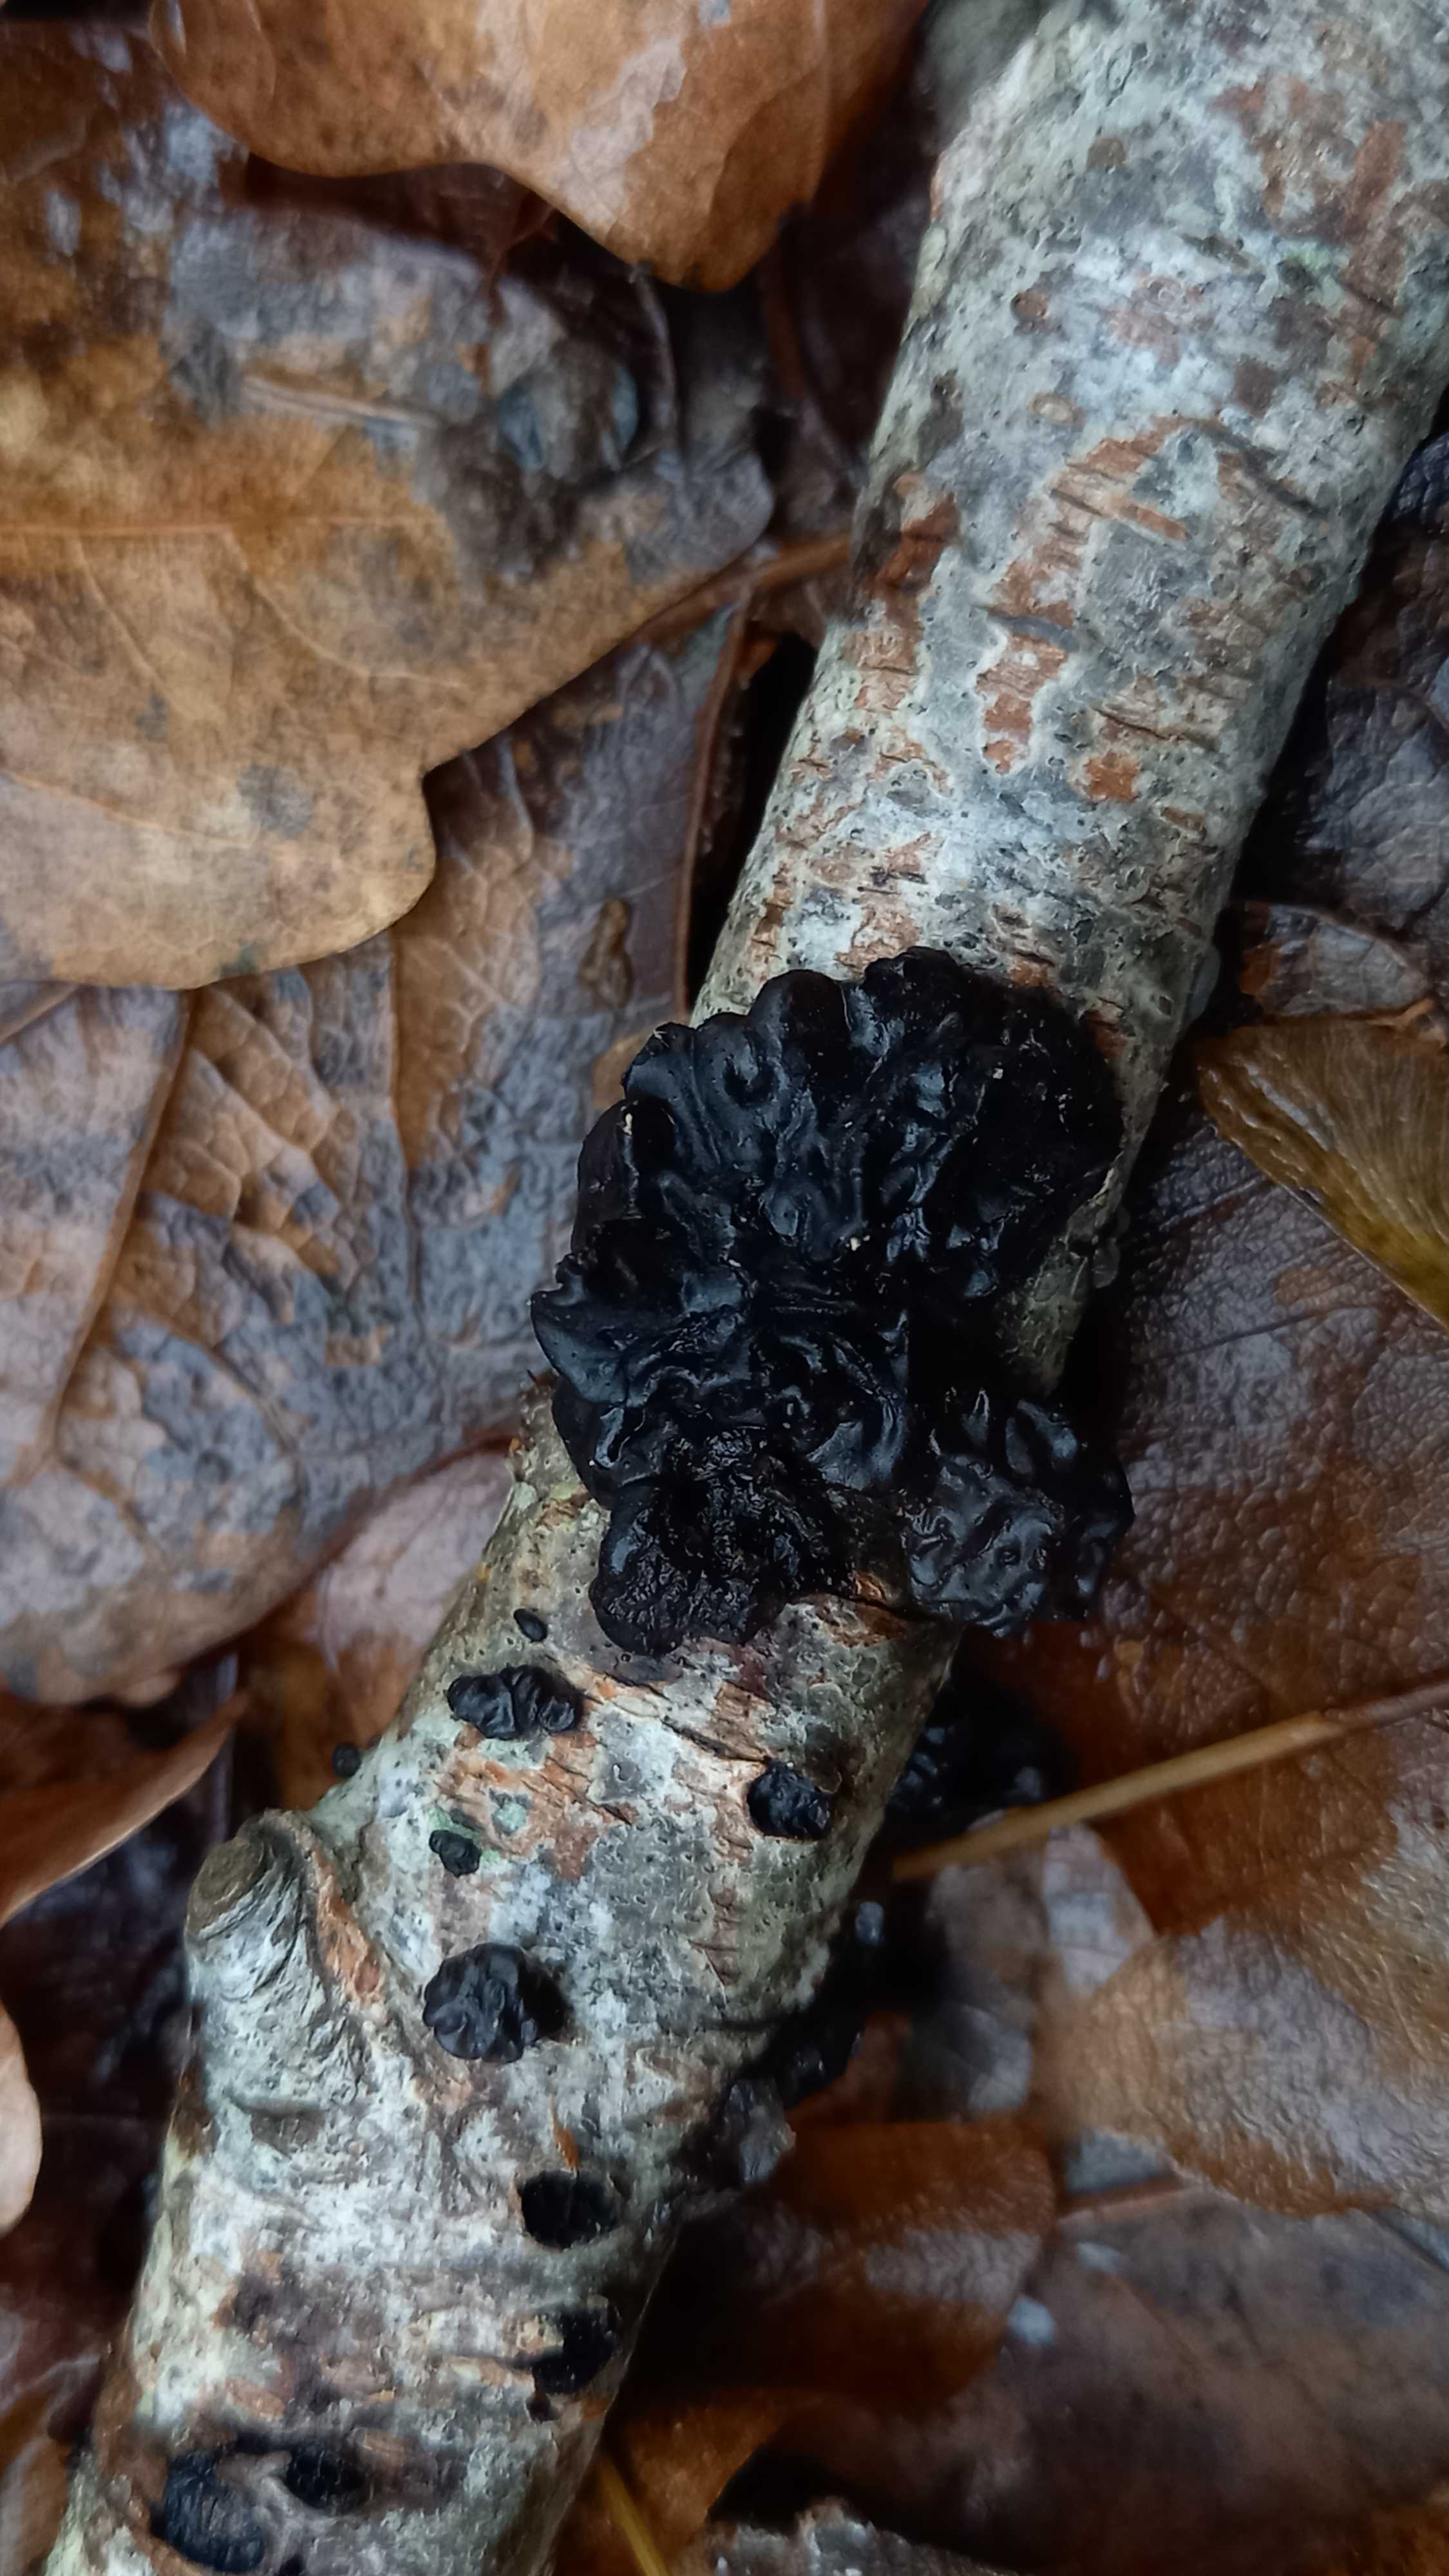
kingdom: Fungi
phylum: Basidiomycota
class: Agaricomycetes
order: Auriculariales
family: Auriculariaceae
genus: Exidia
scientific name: Exidia nigricans
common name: almindelig bævretop
